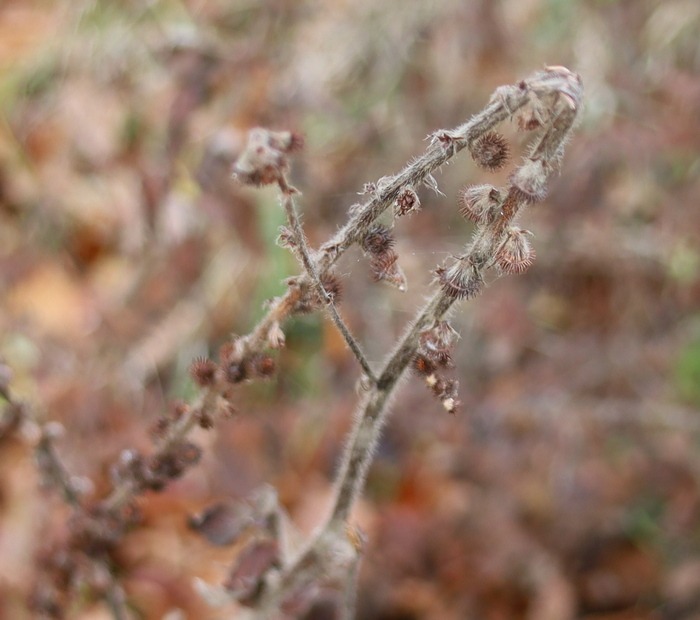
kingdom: Plantae
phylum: Tracheophyta
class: Magnoliopsida
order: Rosales
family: Rosaceae
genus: Agrimonia
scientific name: Agrimonia eupatoria
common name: Almindelig agermåne
